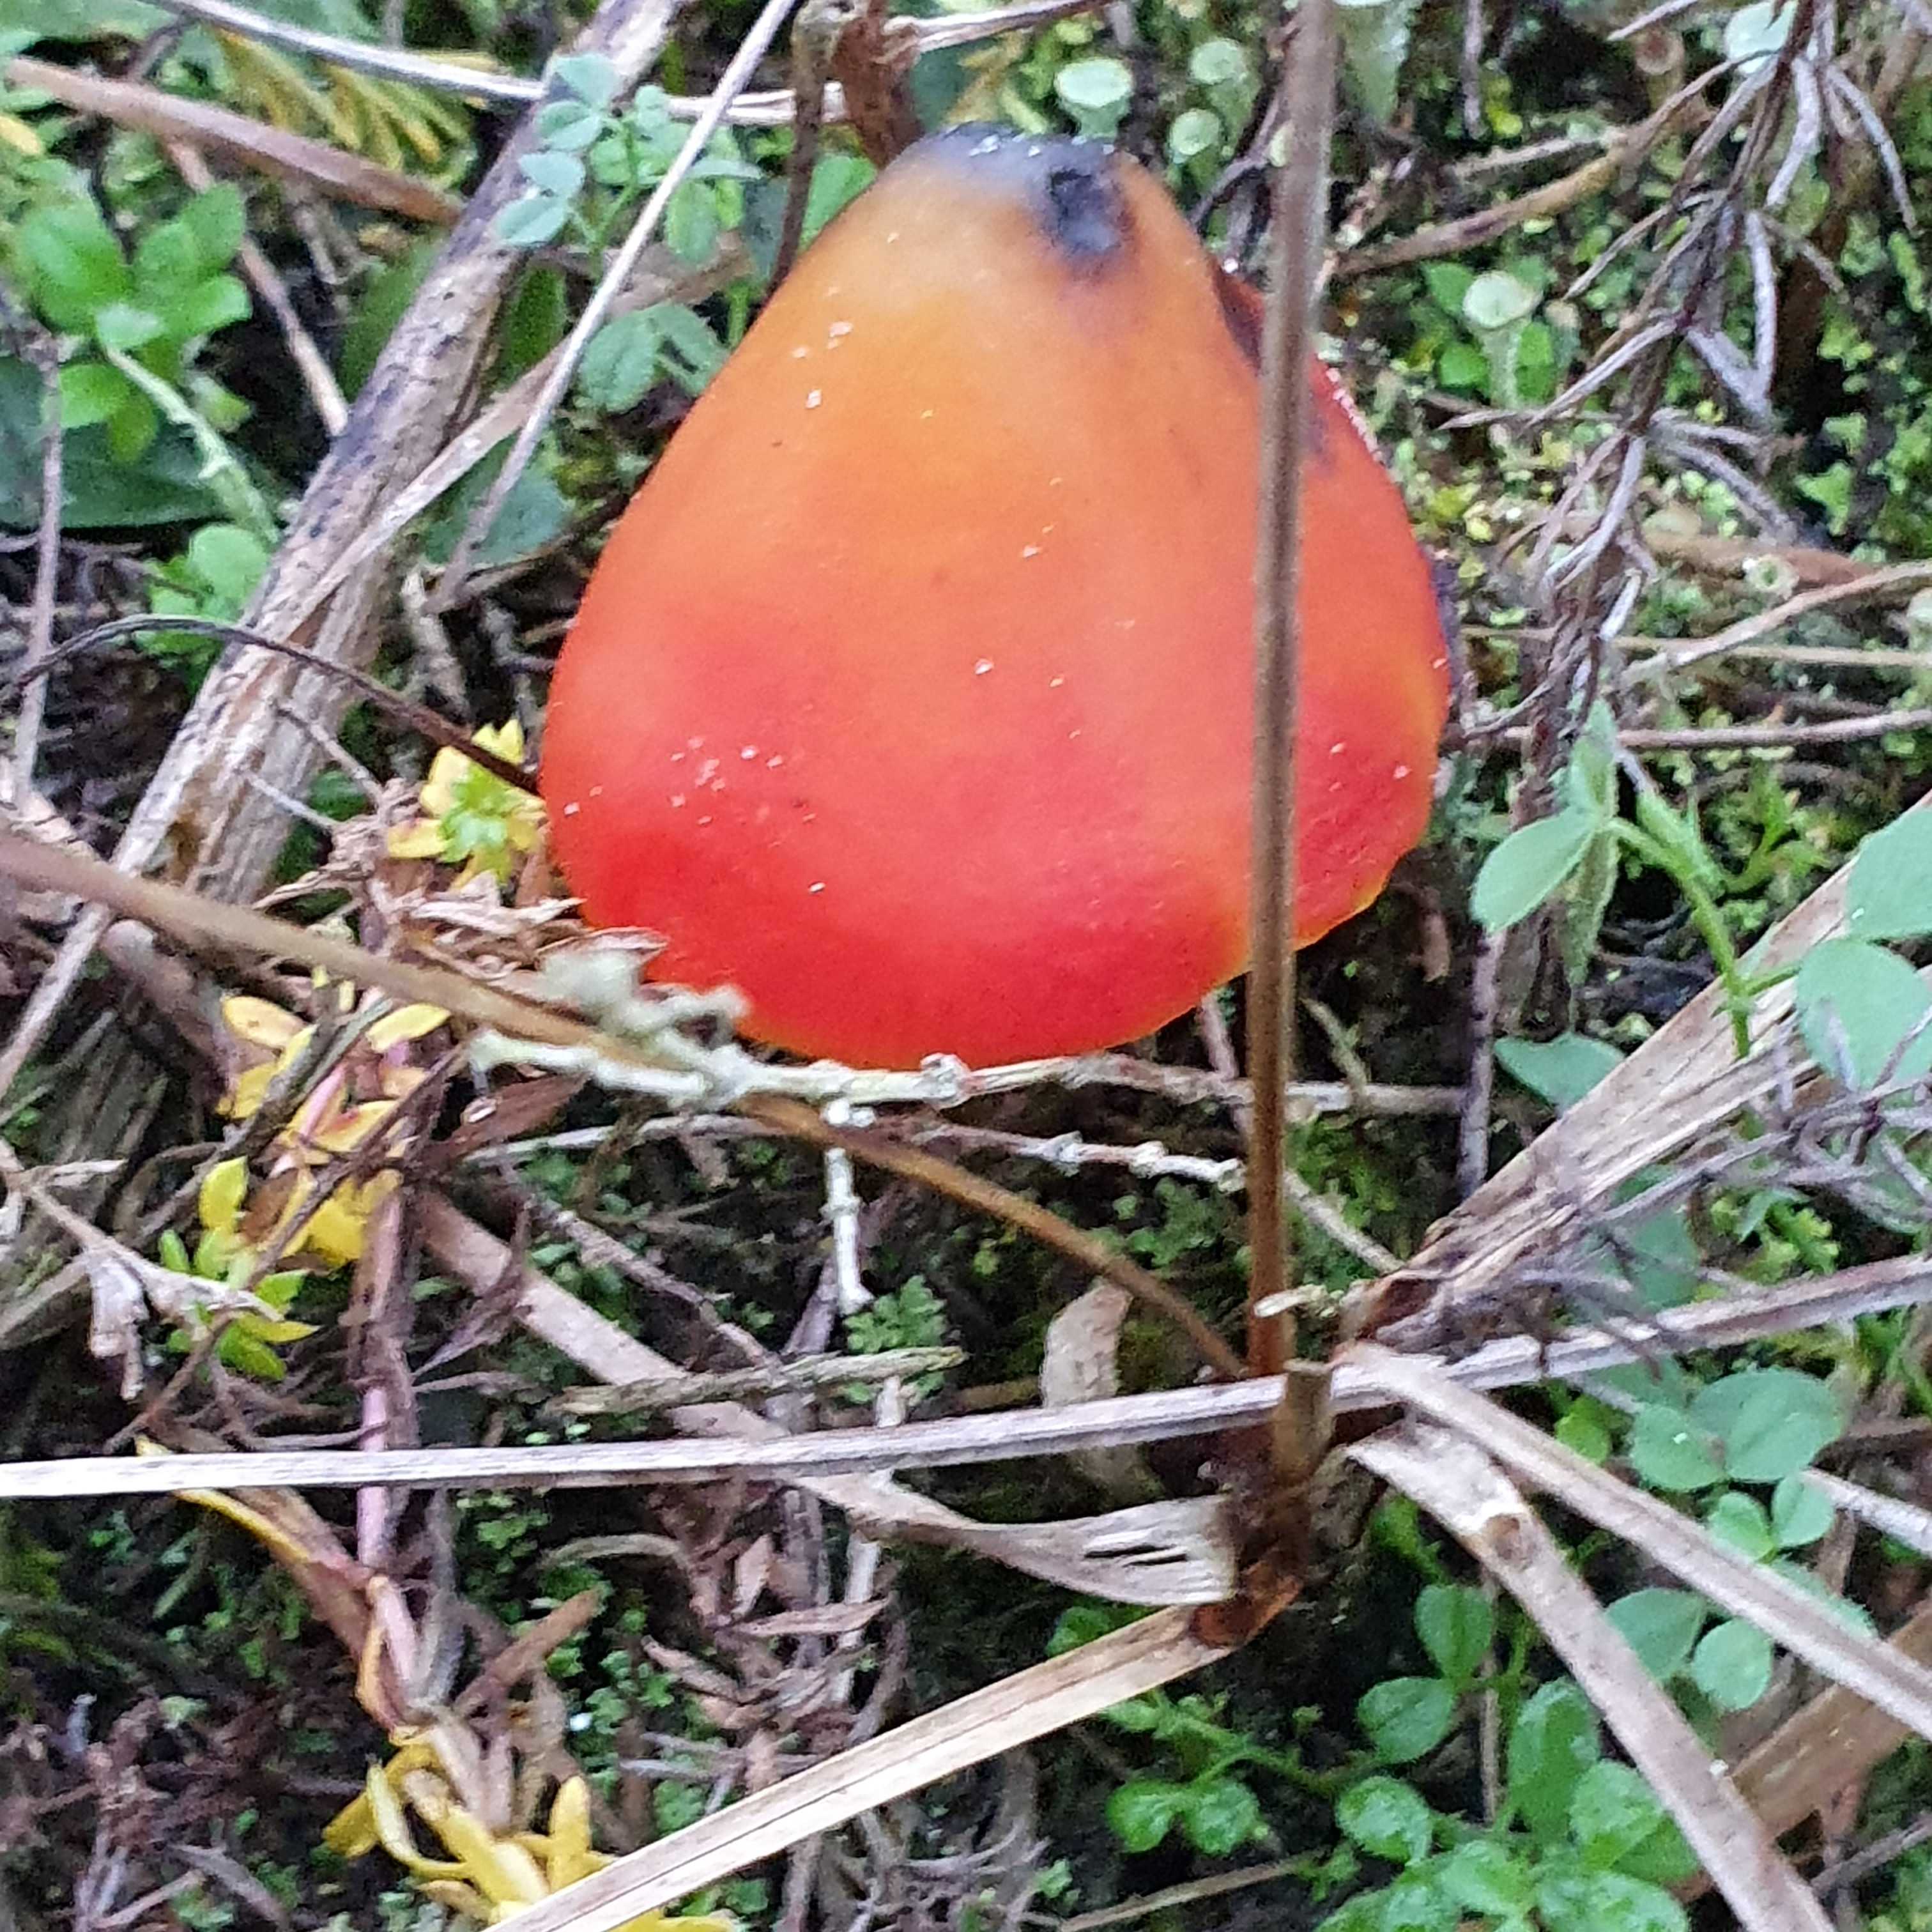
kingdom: Fungi
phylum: Basidiomycota
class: Agaricomycetes
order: Agaricales
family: Hygrophoraceae
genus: Hygrocybe
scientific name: Hygrocybe conicoides
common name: klit-vokshat
